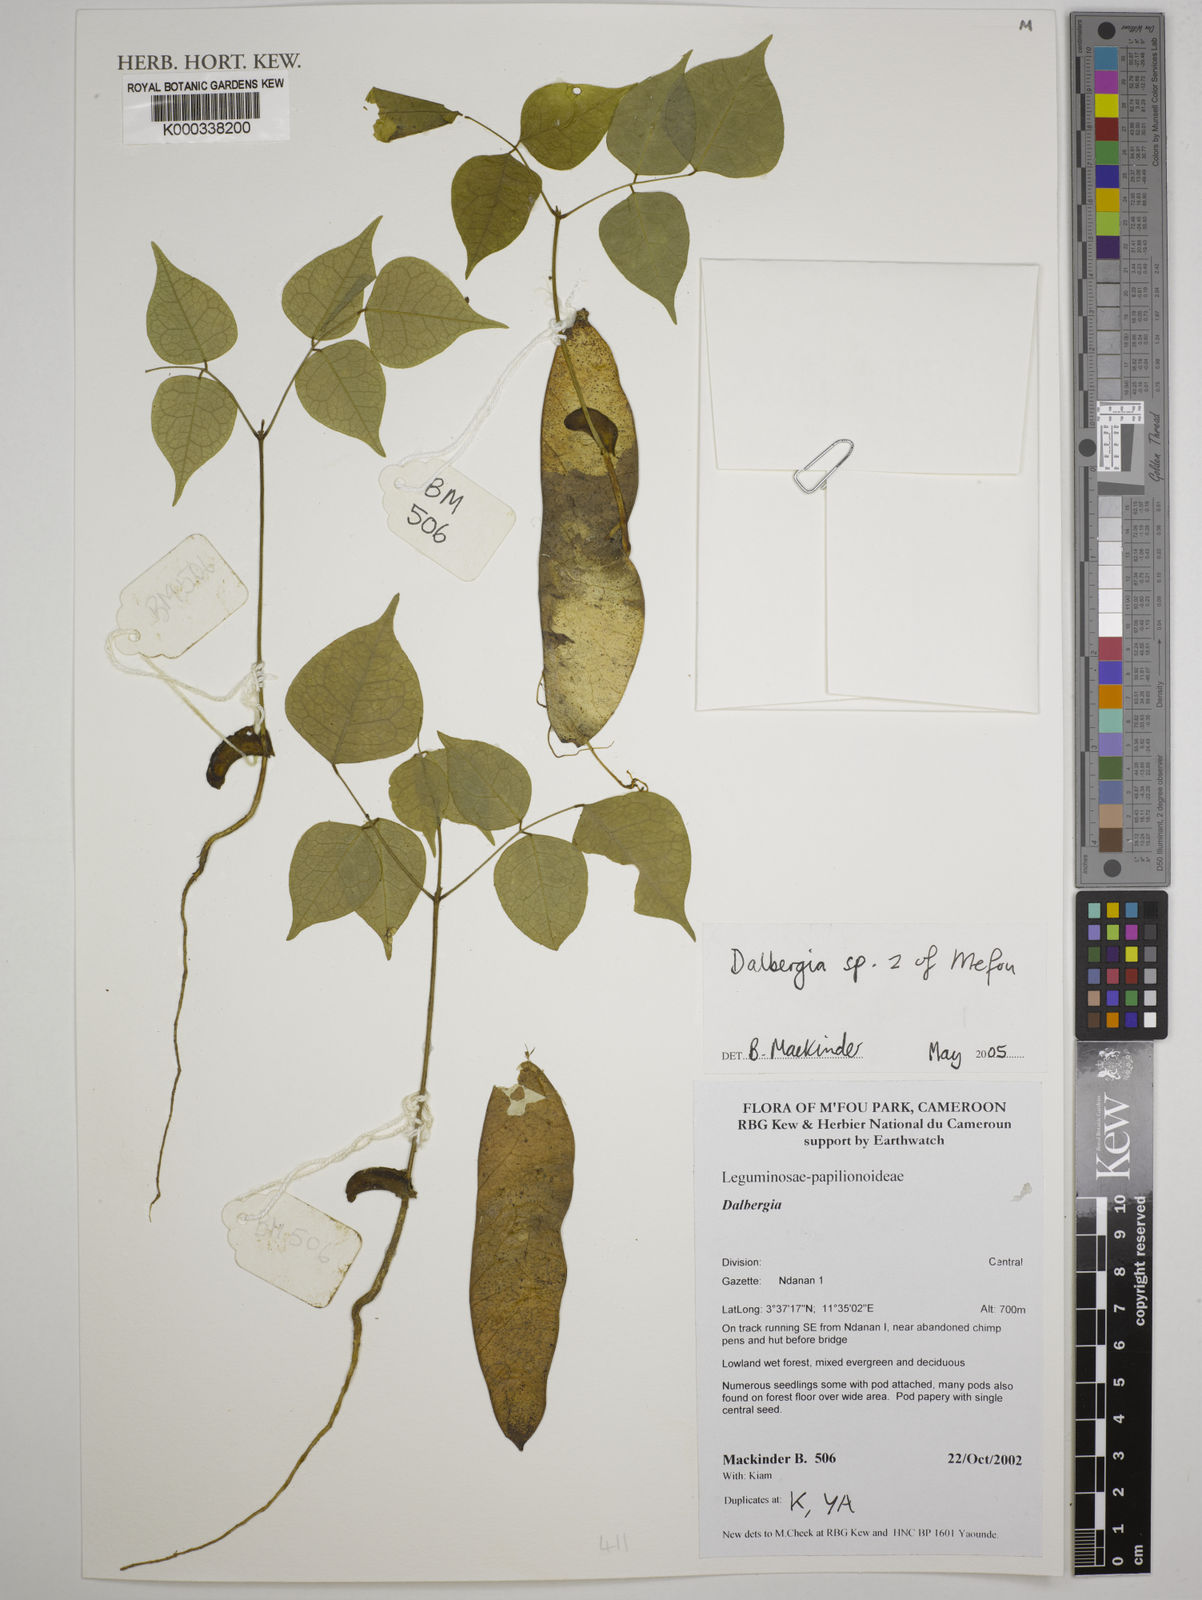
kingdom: Plantae
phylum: Tracheophyta
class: Magnoliopsida
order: Fabales
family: Fabaceae
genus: Dalbergia
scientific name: Dalbergia
